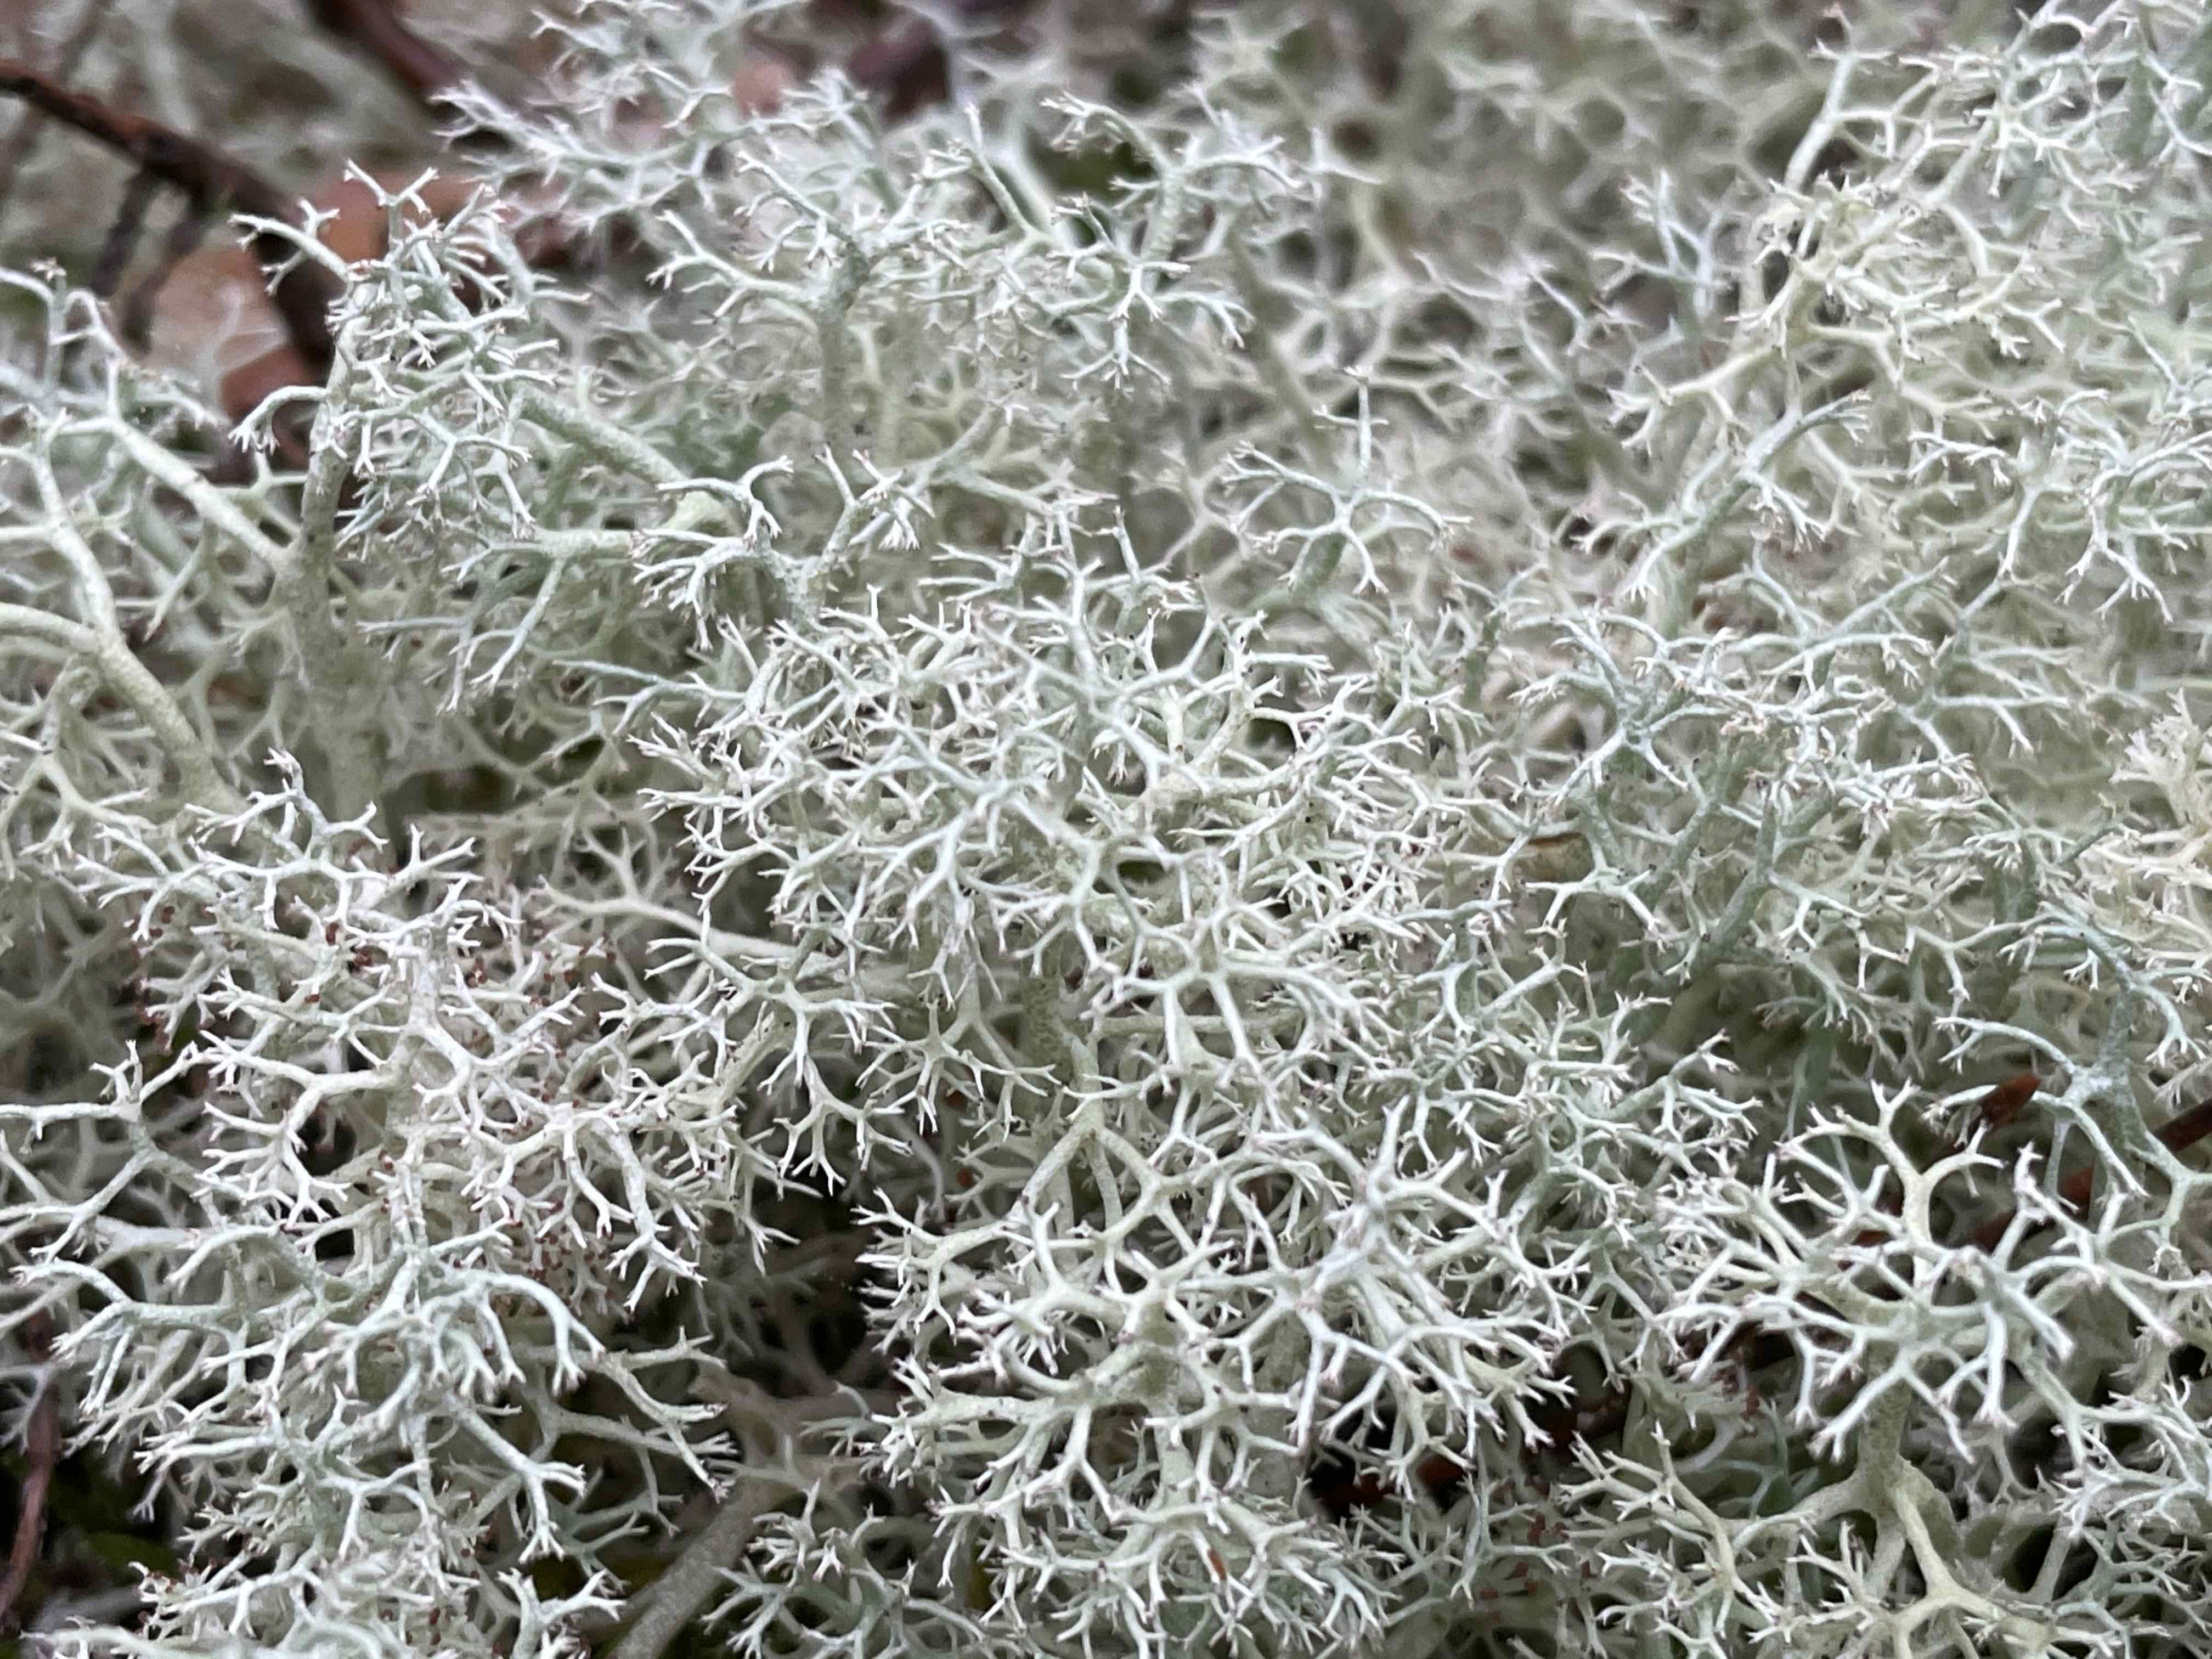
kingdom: Fungi
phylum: Ascomycota
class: Lecanoromycetes
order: Lecanorales
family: Cladoniaceae
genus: Cladonia
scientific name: Cladonia portentosa
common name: hede-rensdyrlav
